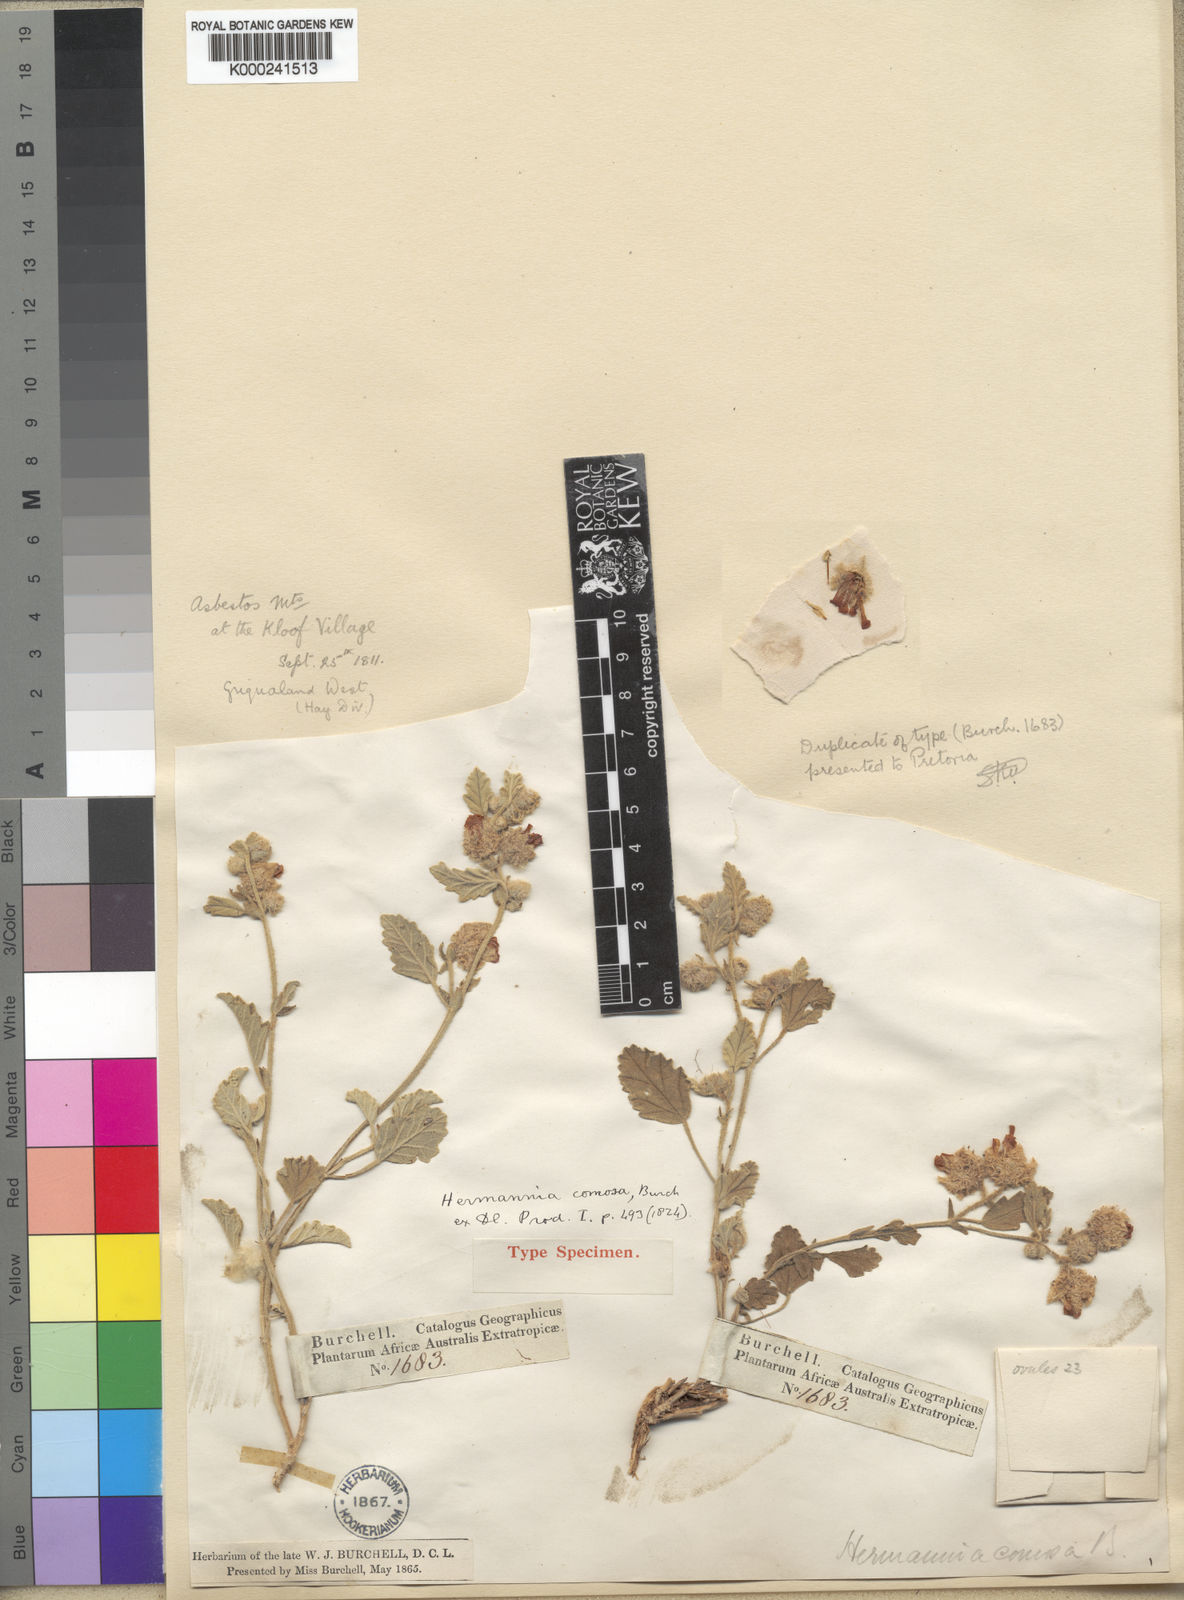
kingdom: Plantae
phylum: Tracheophyta
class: Magnoliopsida
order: Malvales
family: Malvaceae
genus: Hermannia
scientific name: Hermannia comosa
